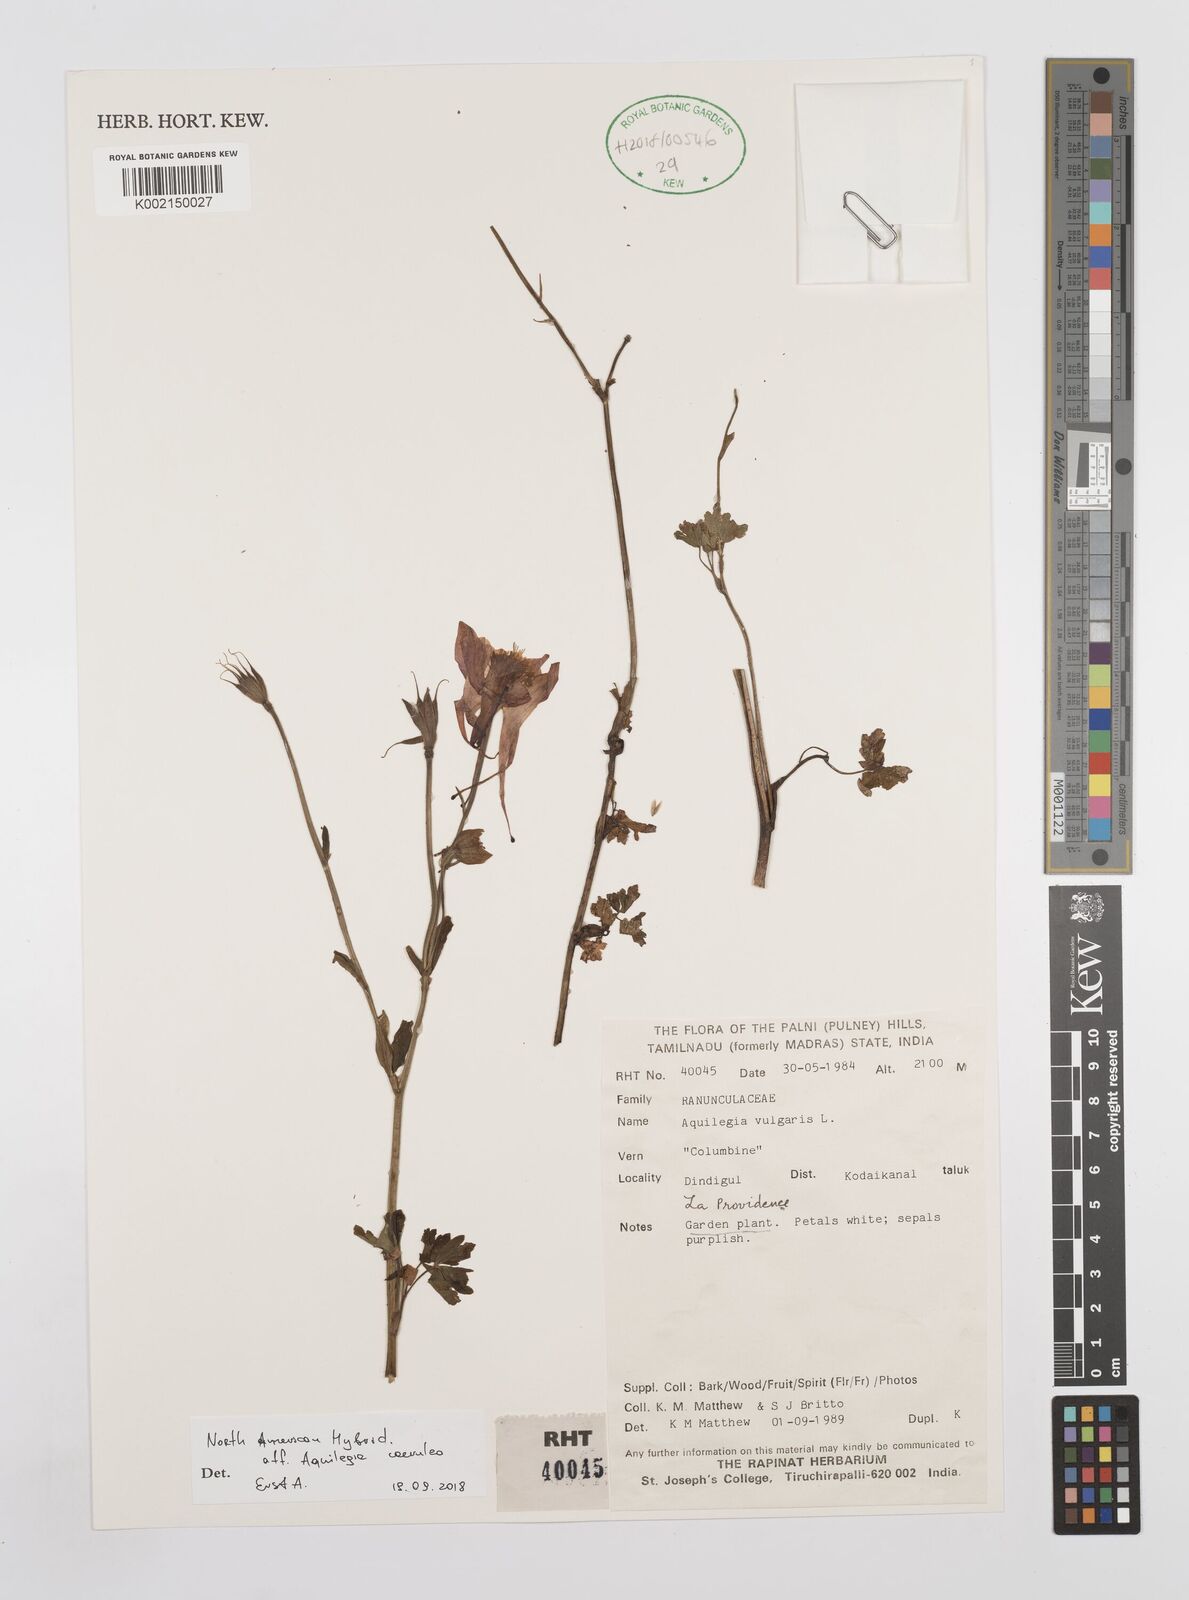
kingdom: Plantae
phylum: Tracheophyta
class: Magnoliopsida
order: Ranunculales
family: Ranunculaceae
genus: Aquilegia
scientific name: Aquilegia coerulea
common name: Rocky mountain columbine
